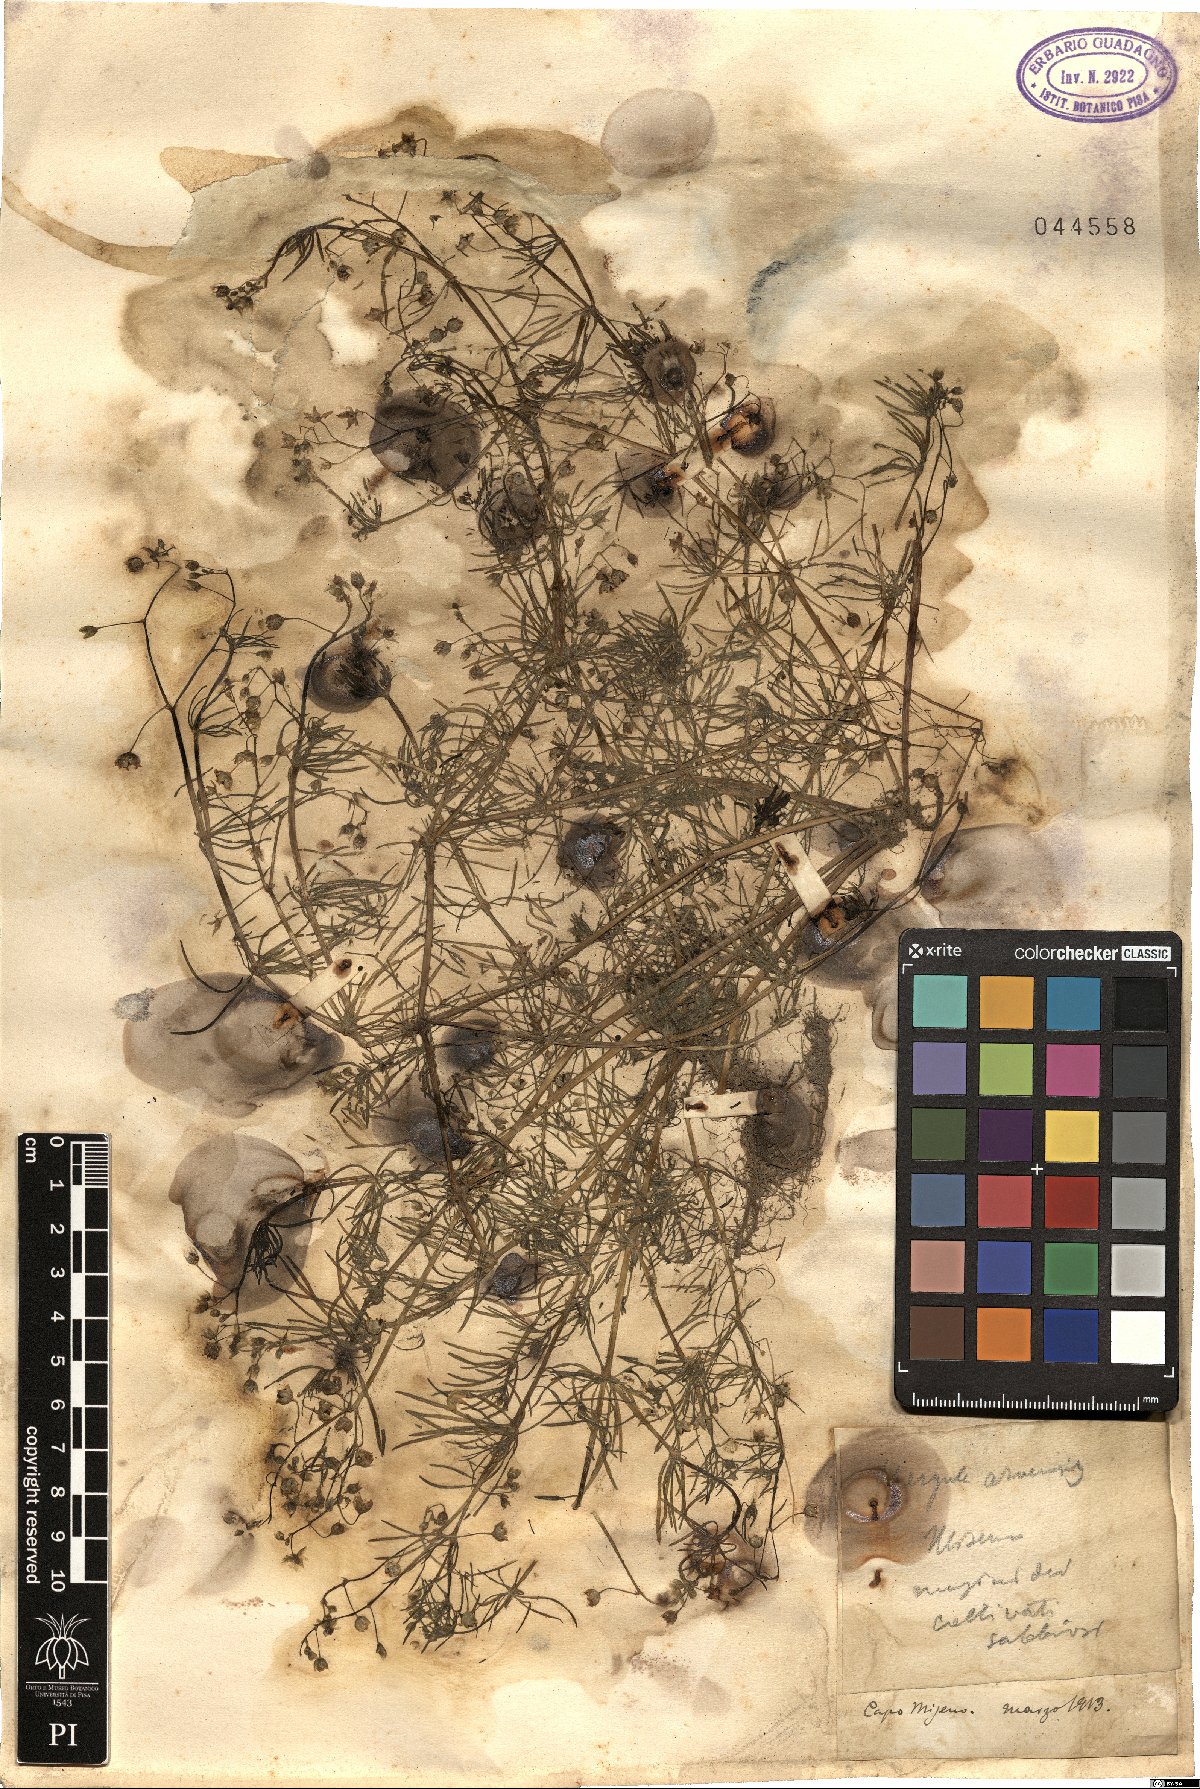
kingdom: Plantae
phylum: Tracheophyta
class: Magnoliopsida
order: Caryophyllales
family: Caryophyllaceae
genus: Spergula
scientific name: Spergula arvensis
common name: Corn spurrey
